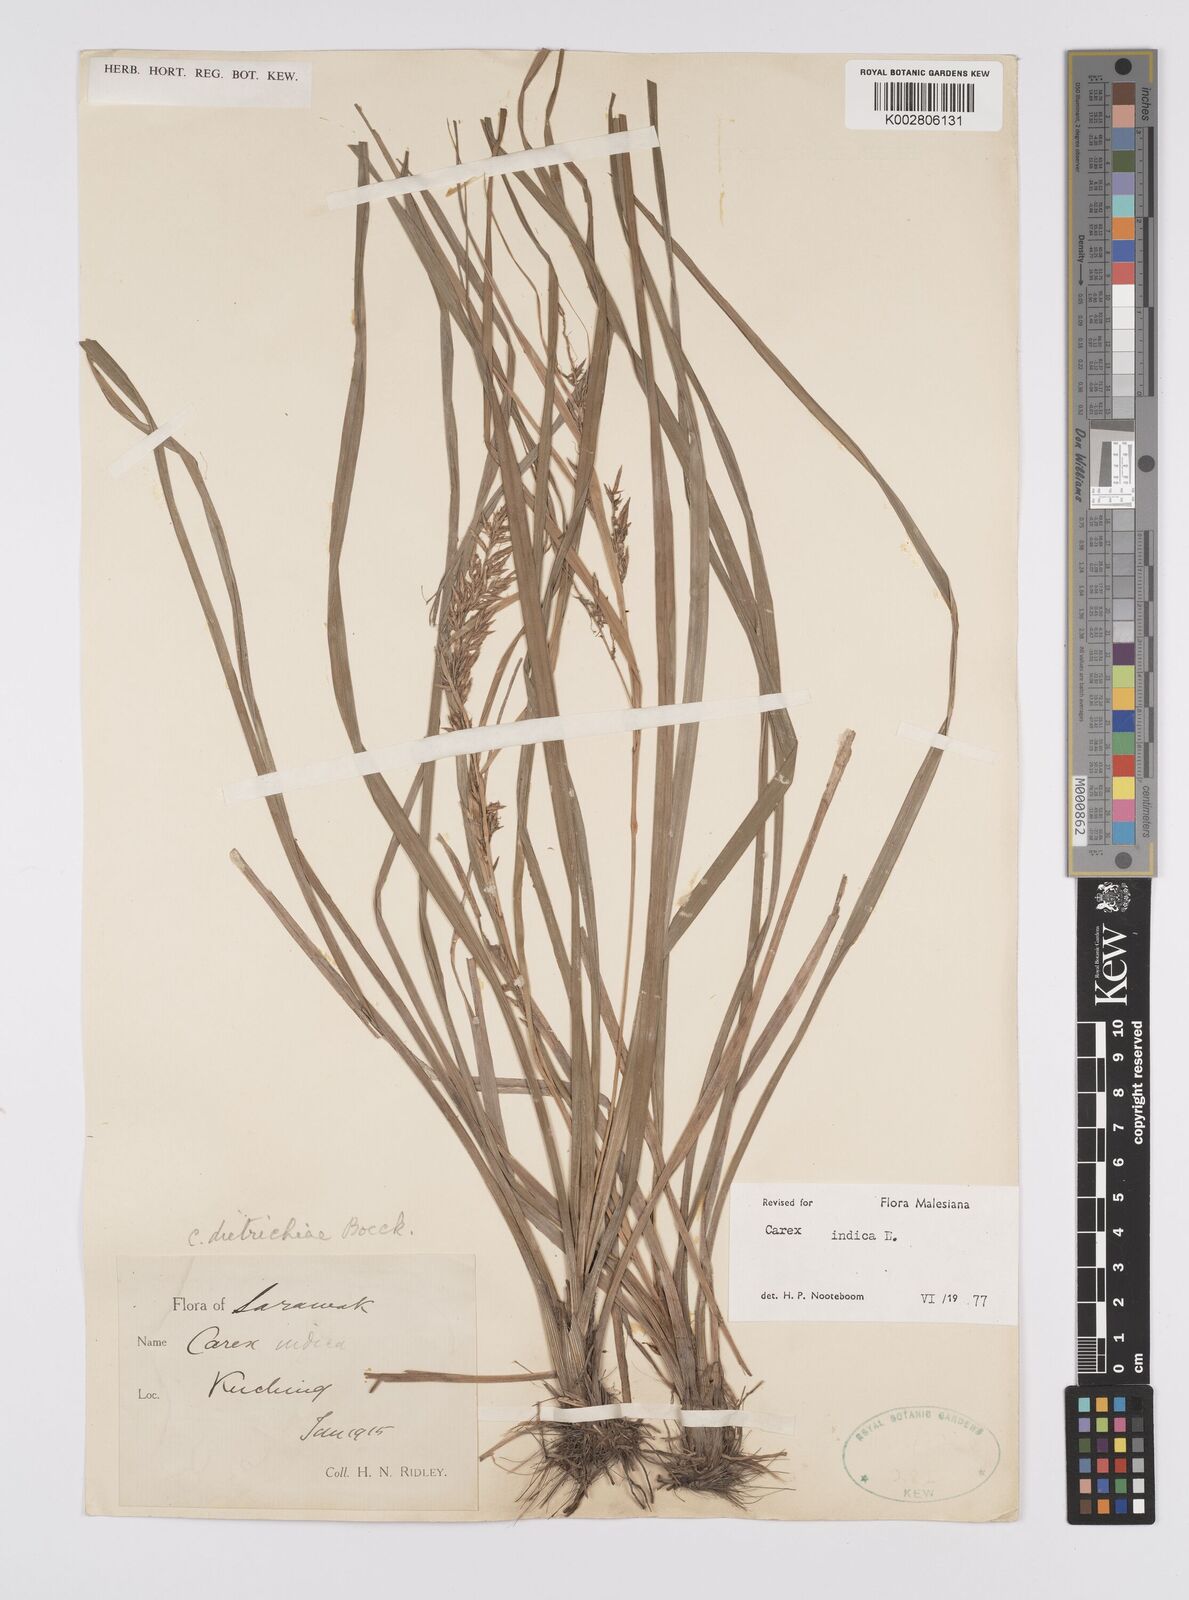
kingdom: Plantae
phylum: Tracheophyta
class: Liliopsida
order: Poales
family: Cyperaceae
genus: Carex
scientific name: Carex indica
